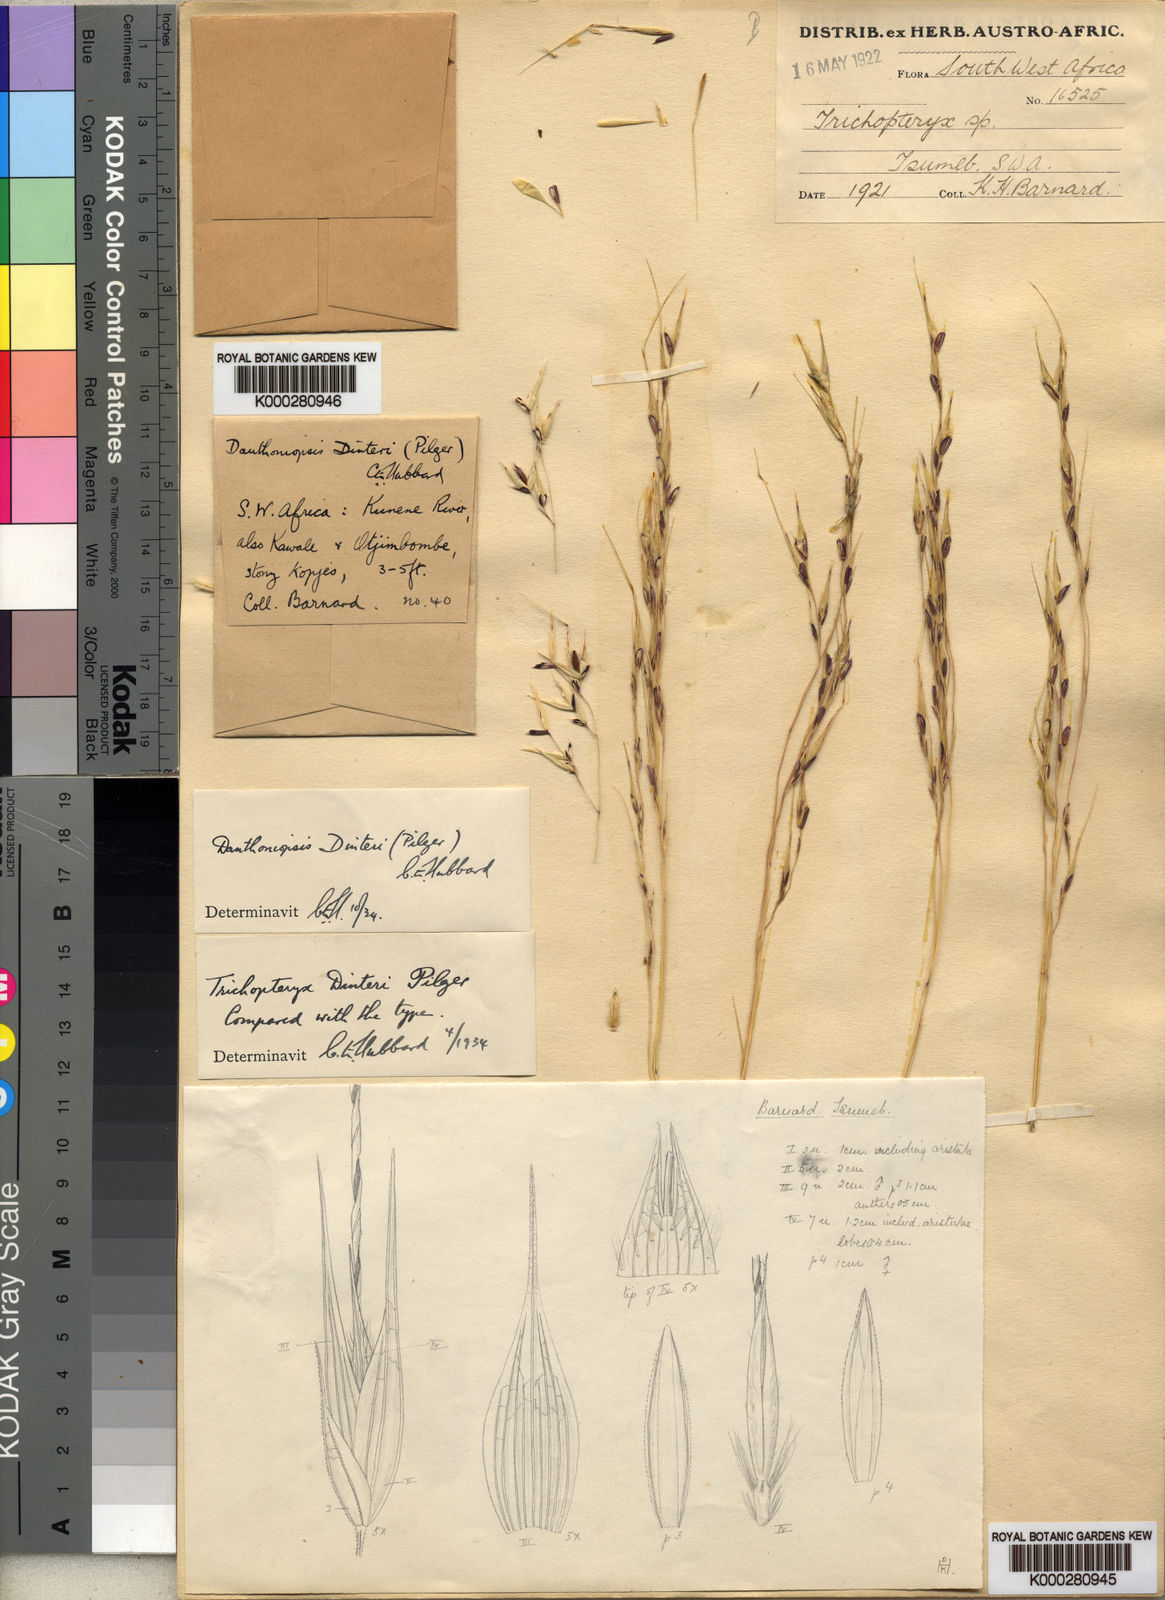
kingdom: Plantae
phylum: Tracheophyta
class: Liliopsida
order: Poales
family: Poaceae
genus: Danthoniopsis
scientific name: Danthoniopsis dinteri
